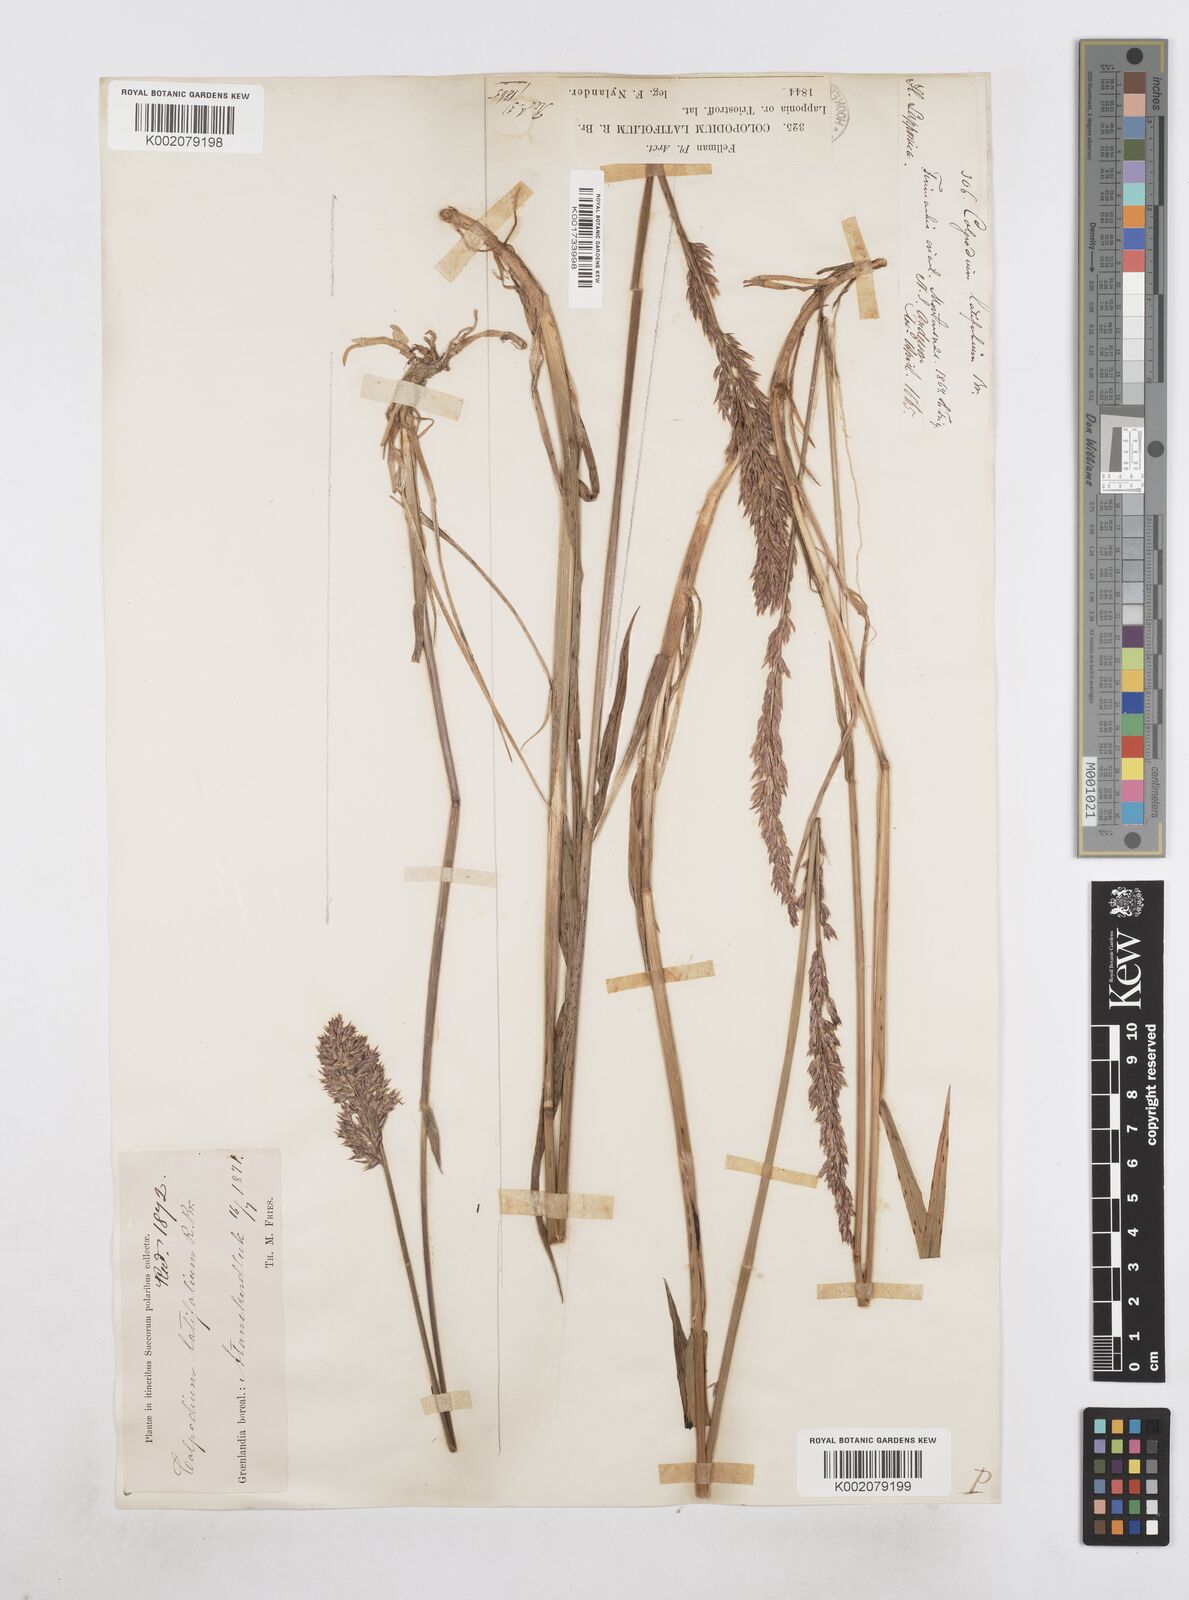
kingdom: Plantae
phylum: Tracheophyta
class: Liliopsida
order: Poales
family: Poaceae
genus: Arctagrostis
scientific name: Arctagrostis latifolia
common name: Arctic grass
